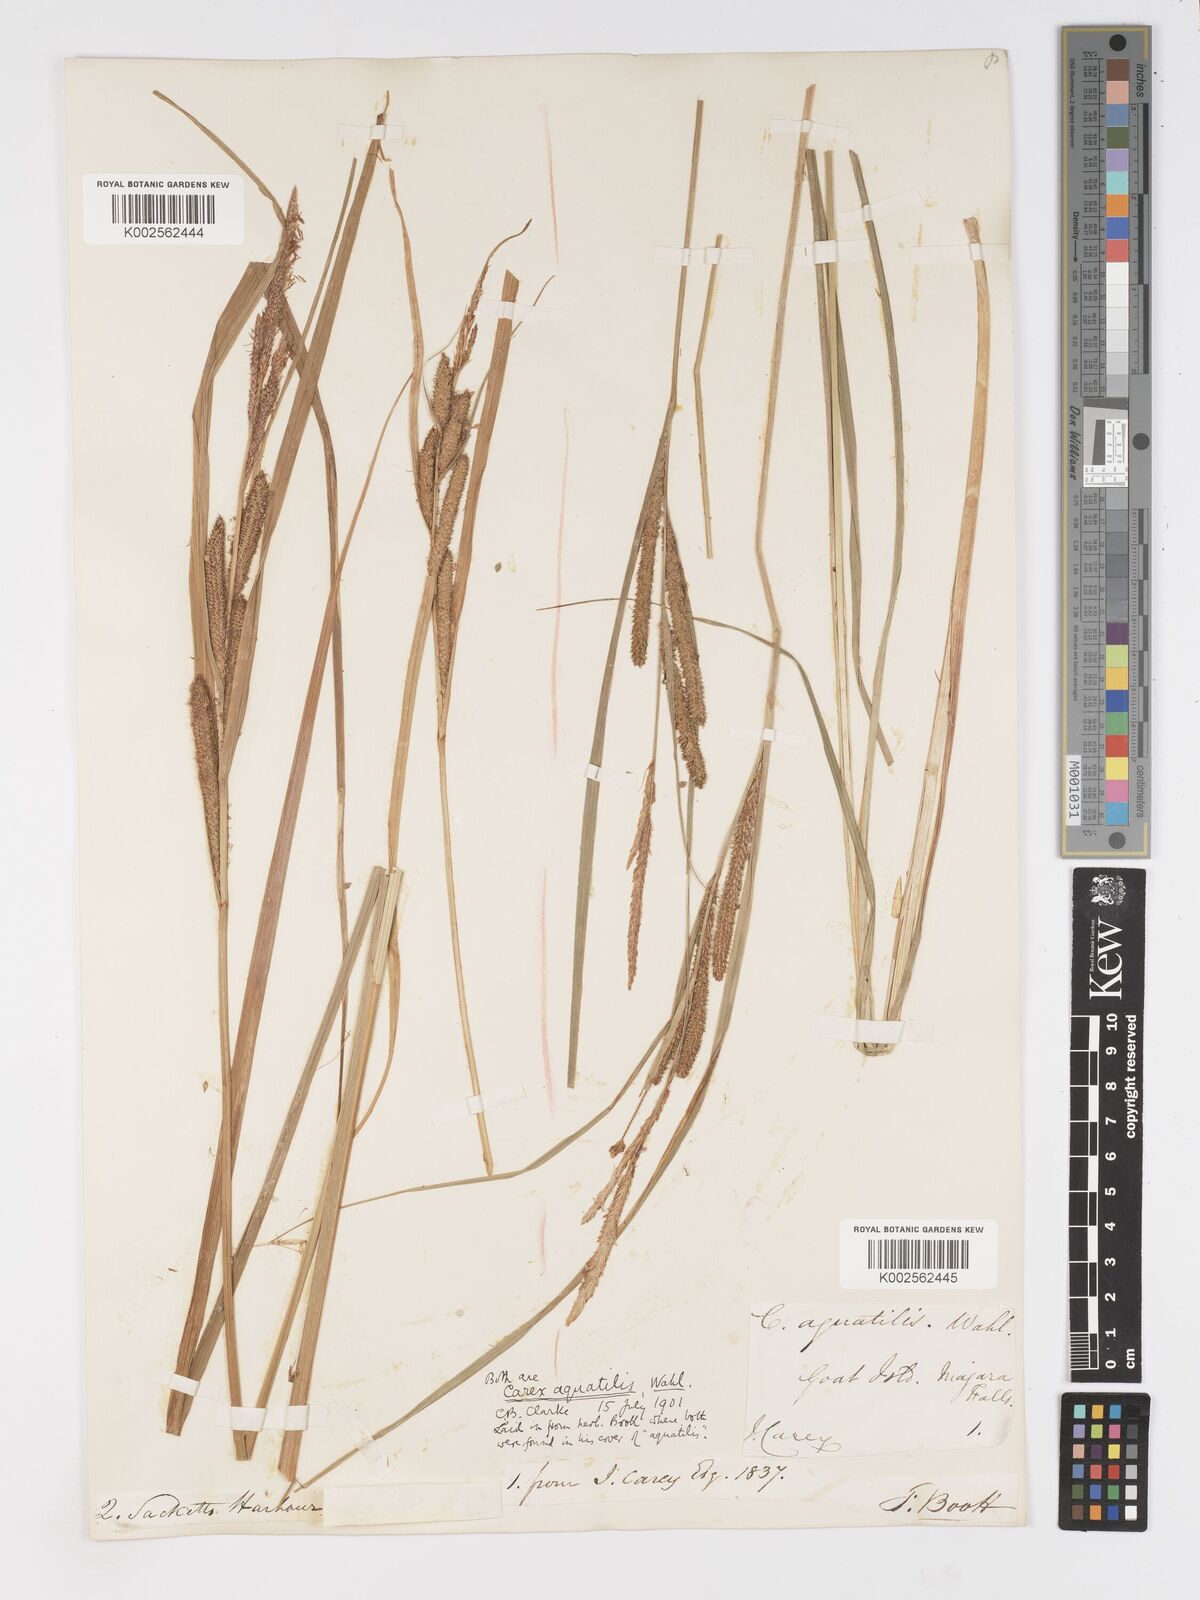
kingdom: Plantae
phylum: Tracheophyta
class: Liliopsida
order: Poales
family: Cyperaceae
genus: Carex
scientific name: Carex
